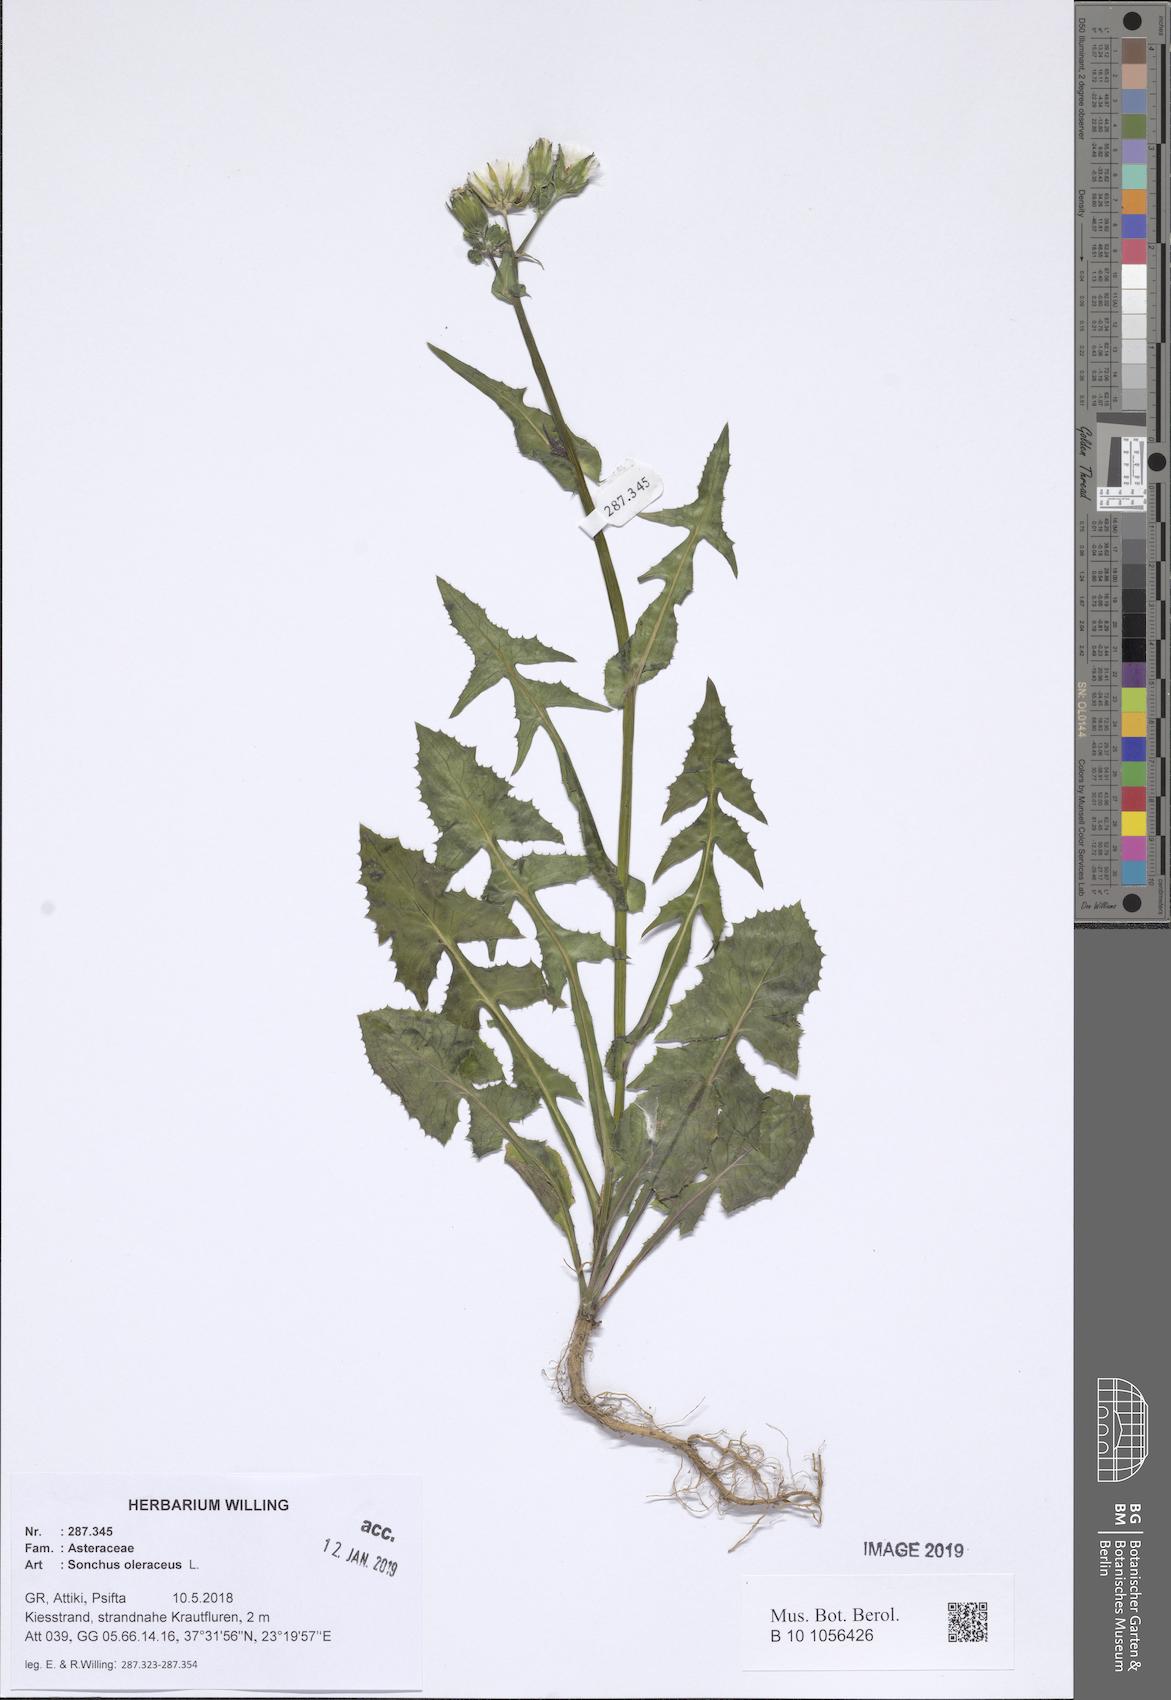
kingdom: Plantae
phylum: Tracheophyta
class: Magnoliopsida
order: Asterales
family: Asteraceae
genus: Sonchus
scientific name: Sonchus oleraceus
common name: Common sowthistle
